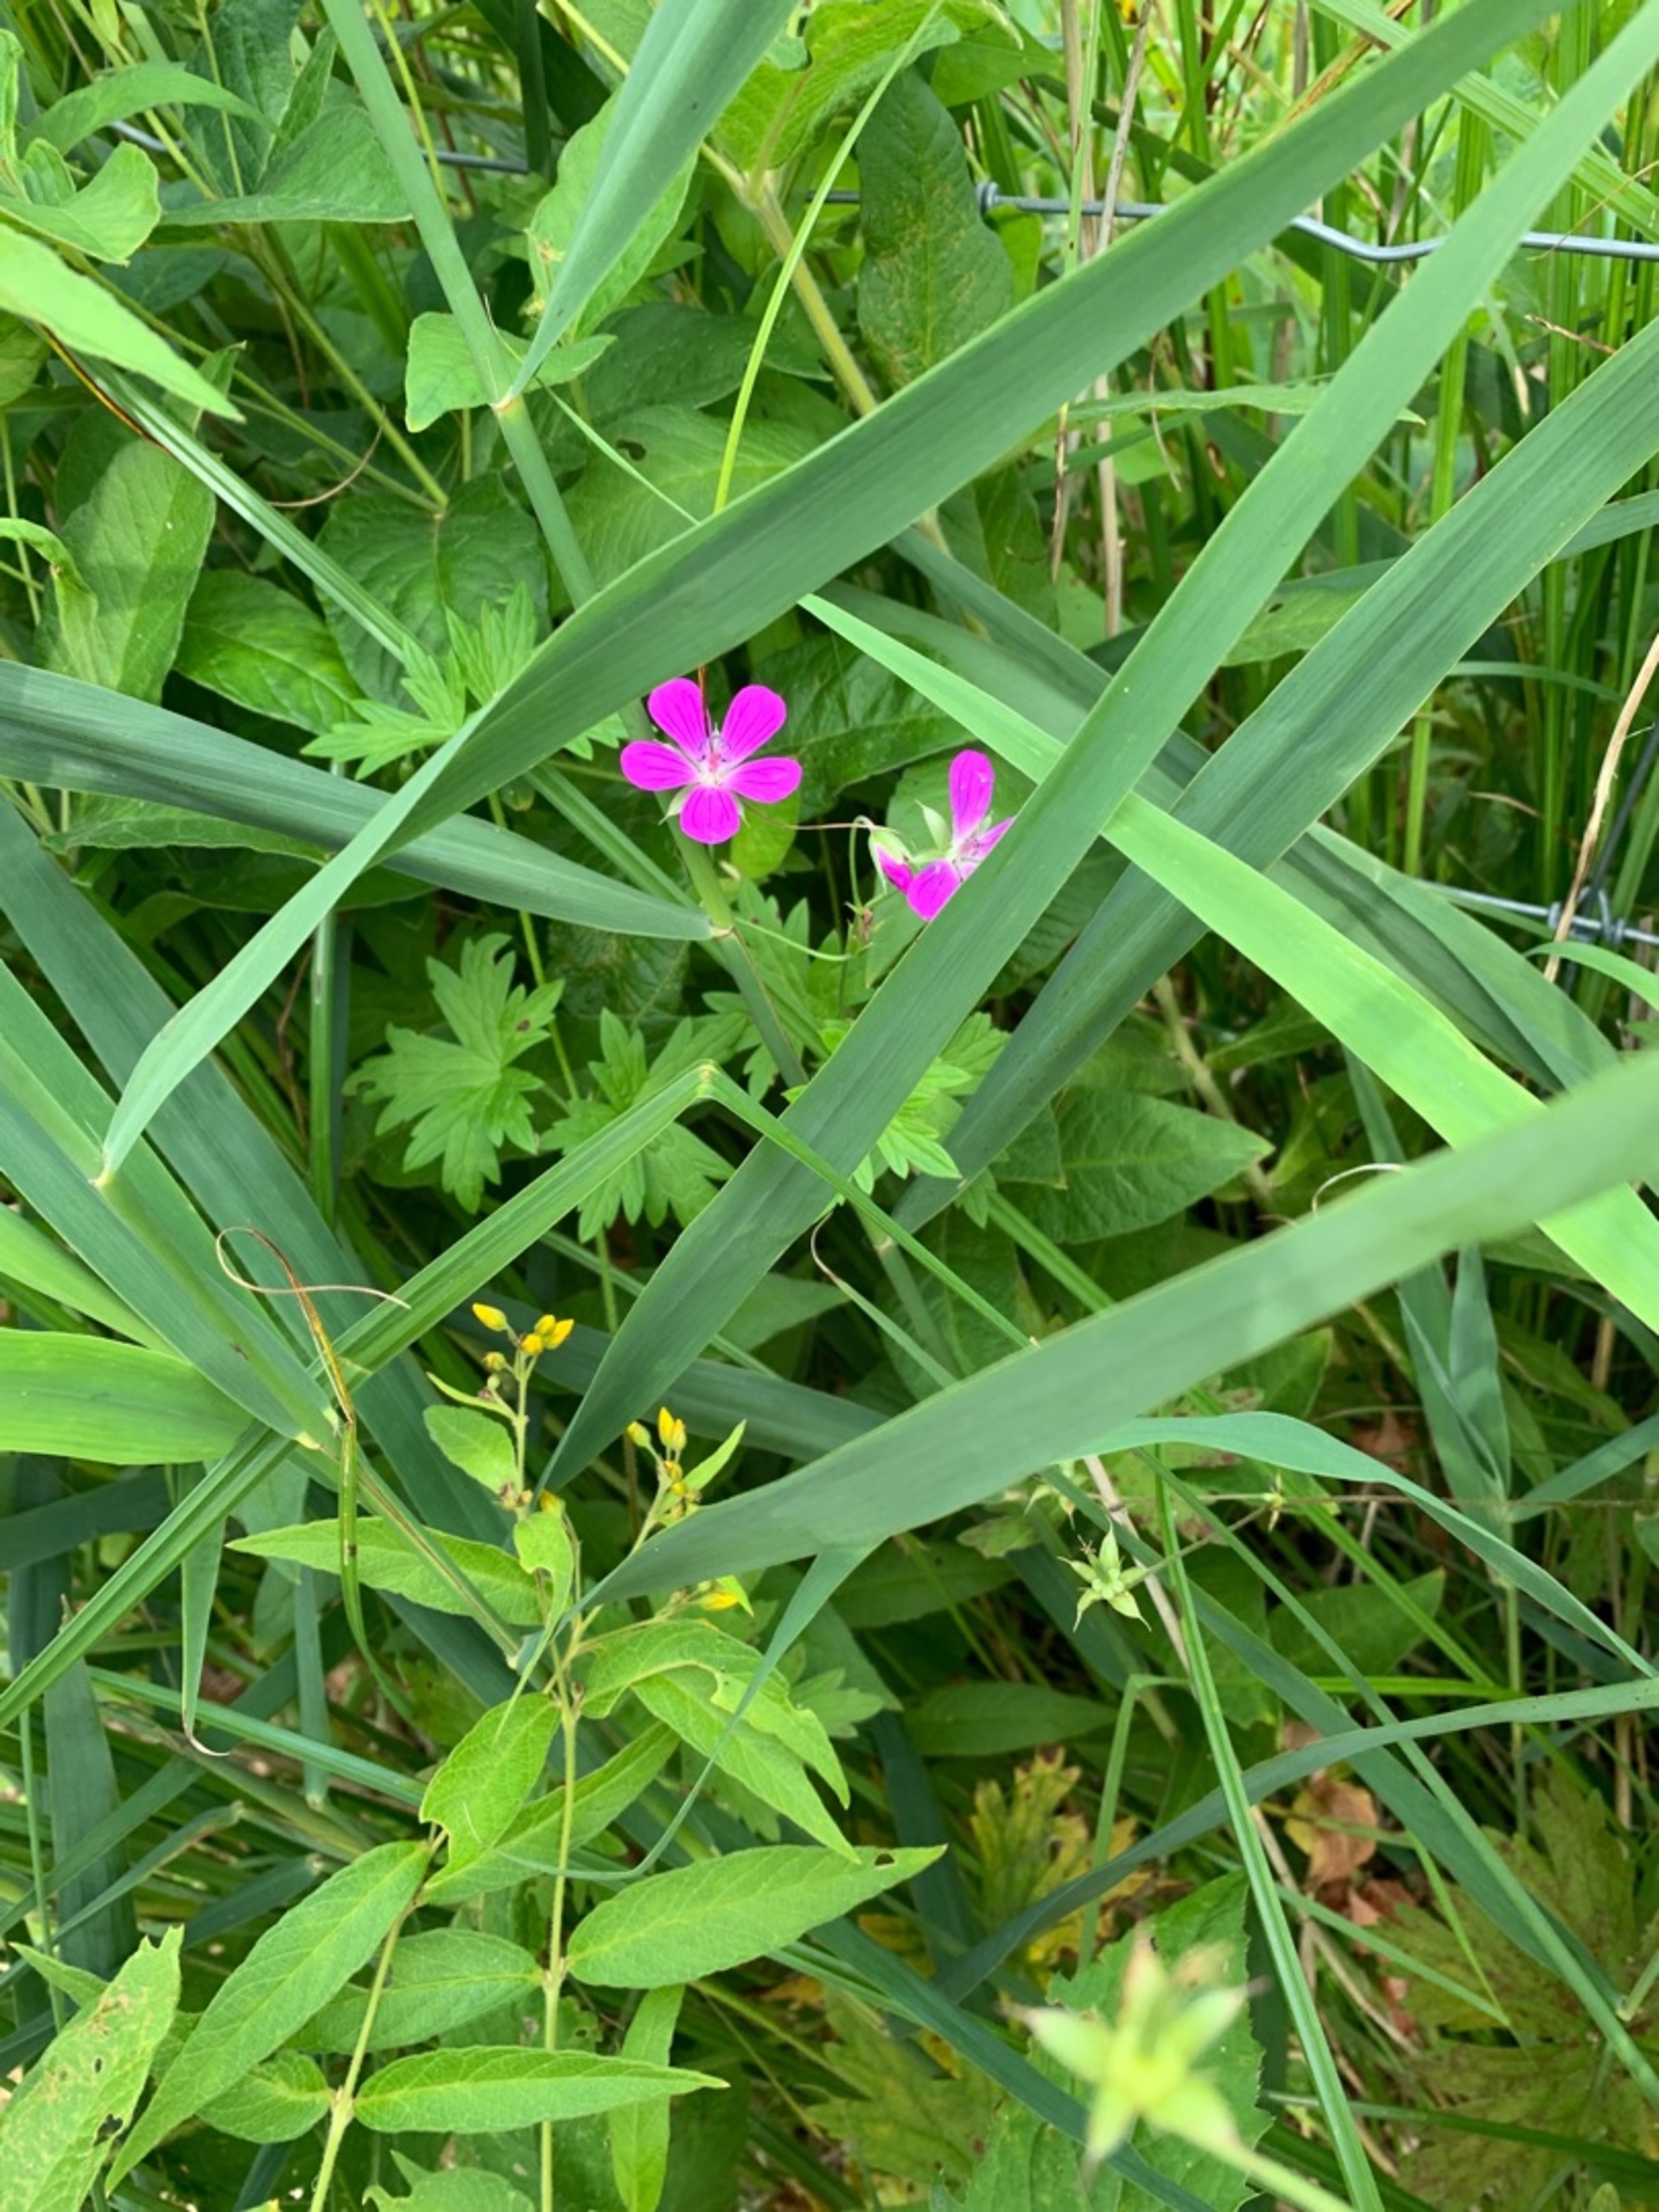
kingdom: Plantae
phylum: Tracheophyta
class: Magnoliopsida
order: Geraniales
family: Geraniaceae
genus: Geranium
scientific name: Geranium palustre
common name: Kær-storkenæb
